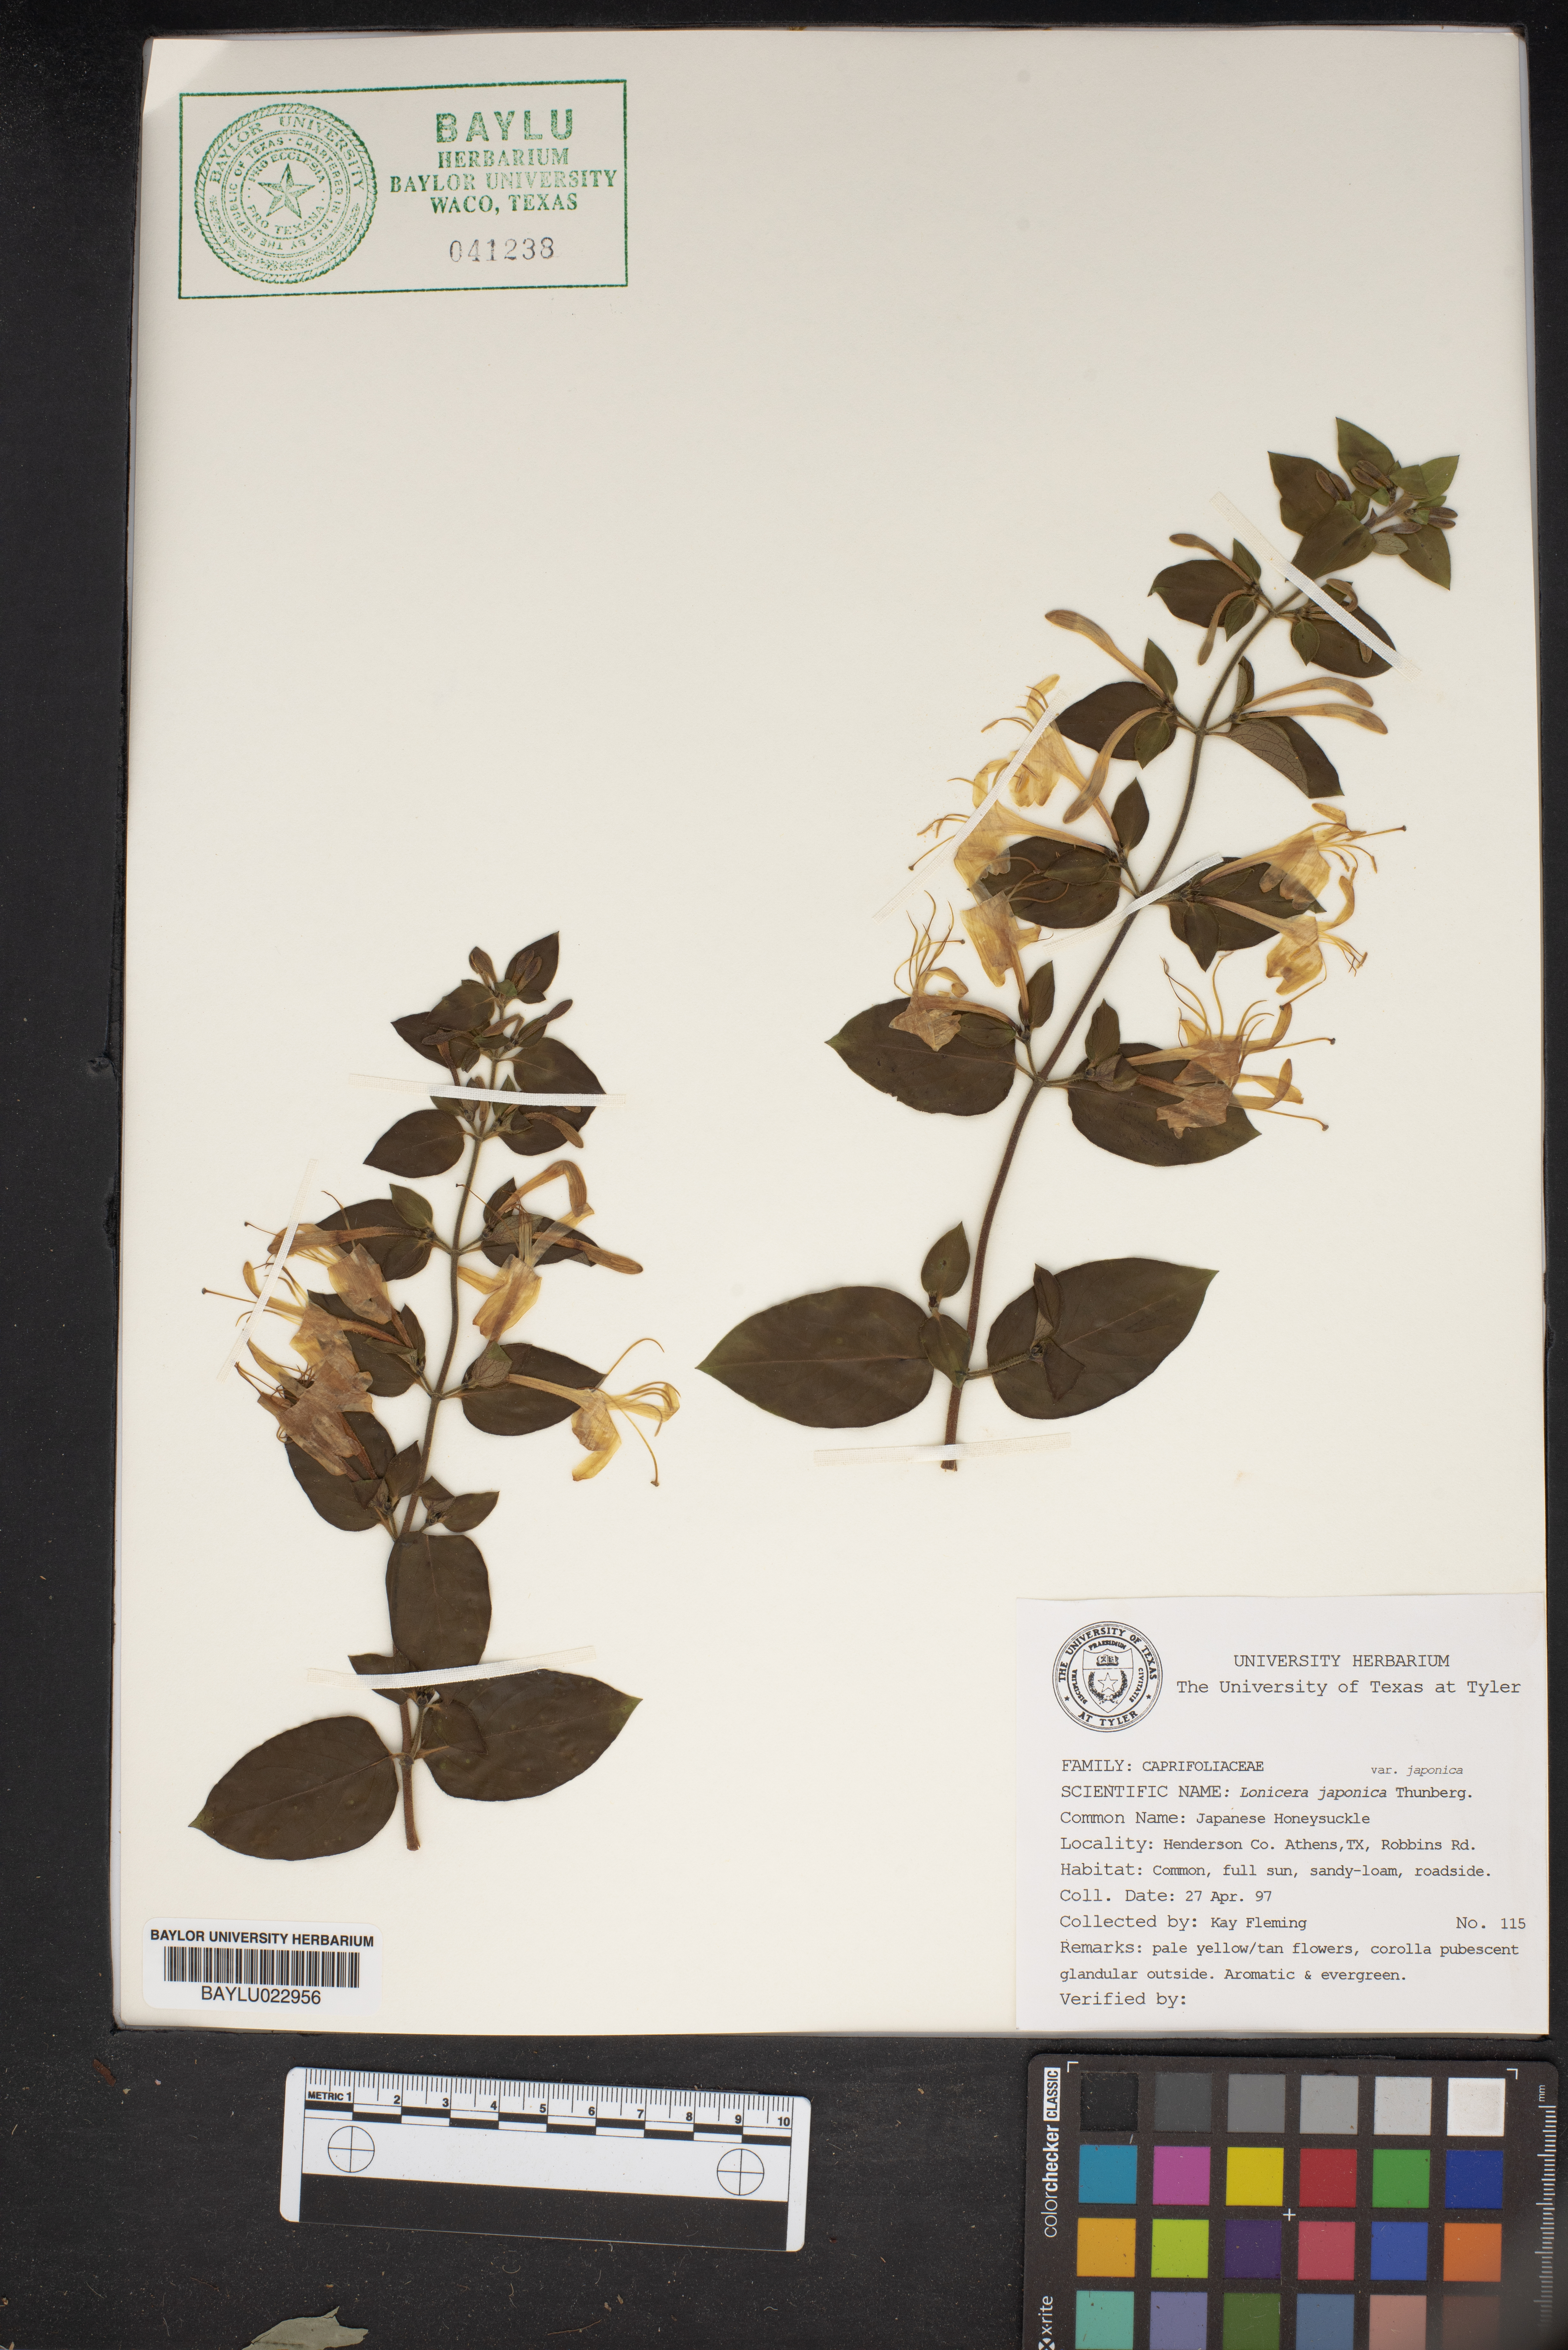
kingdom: Plantae
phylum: Tracheophyta
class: Magnoliopsida
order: Dipsacales
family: Caprifoliaceae
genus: Lonicera
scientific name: Lonicera japonica
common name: Japanese honeysuckle
